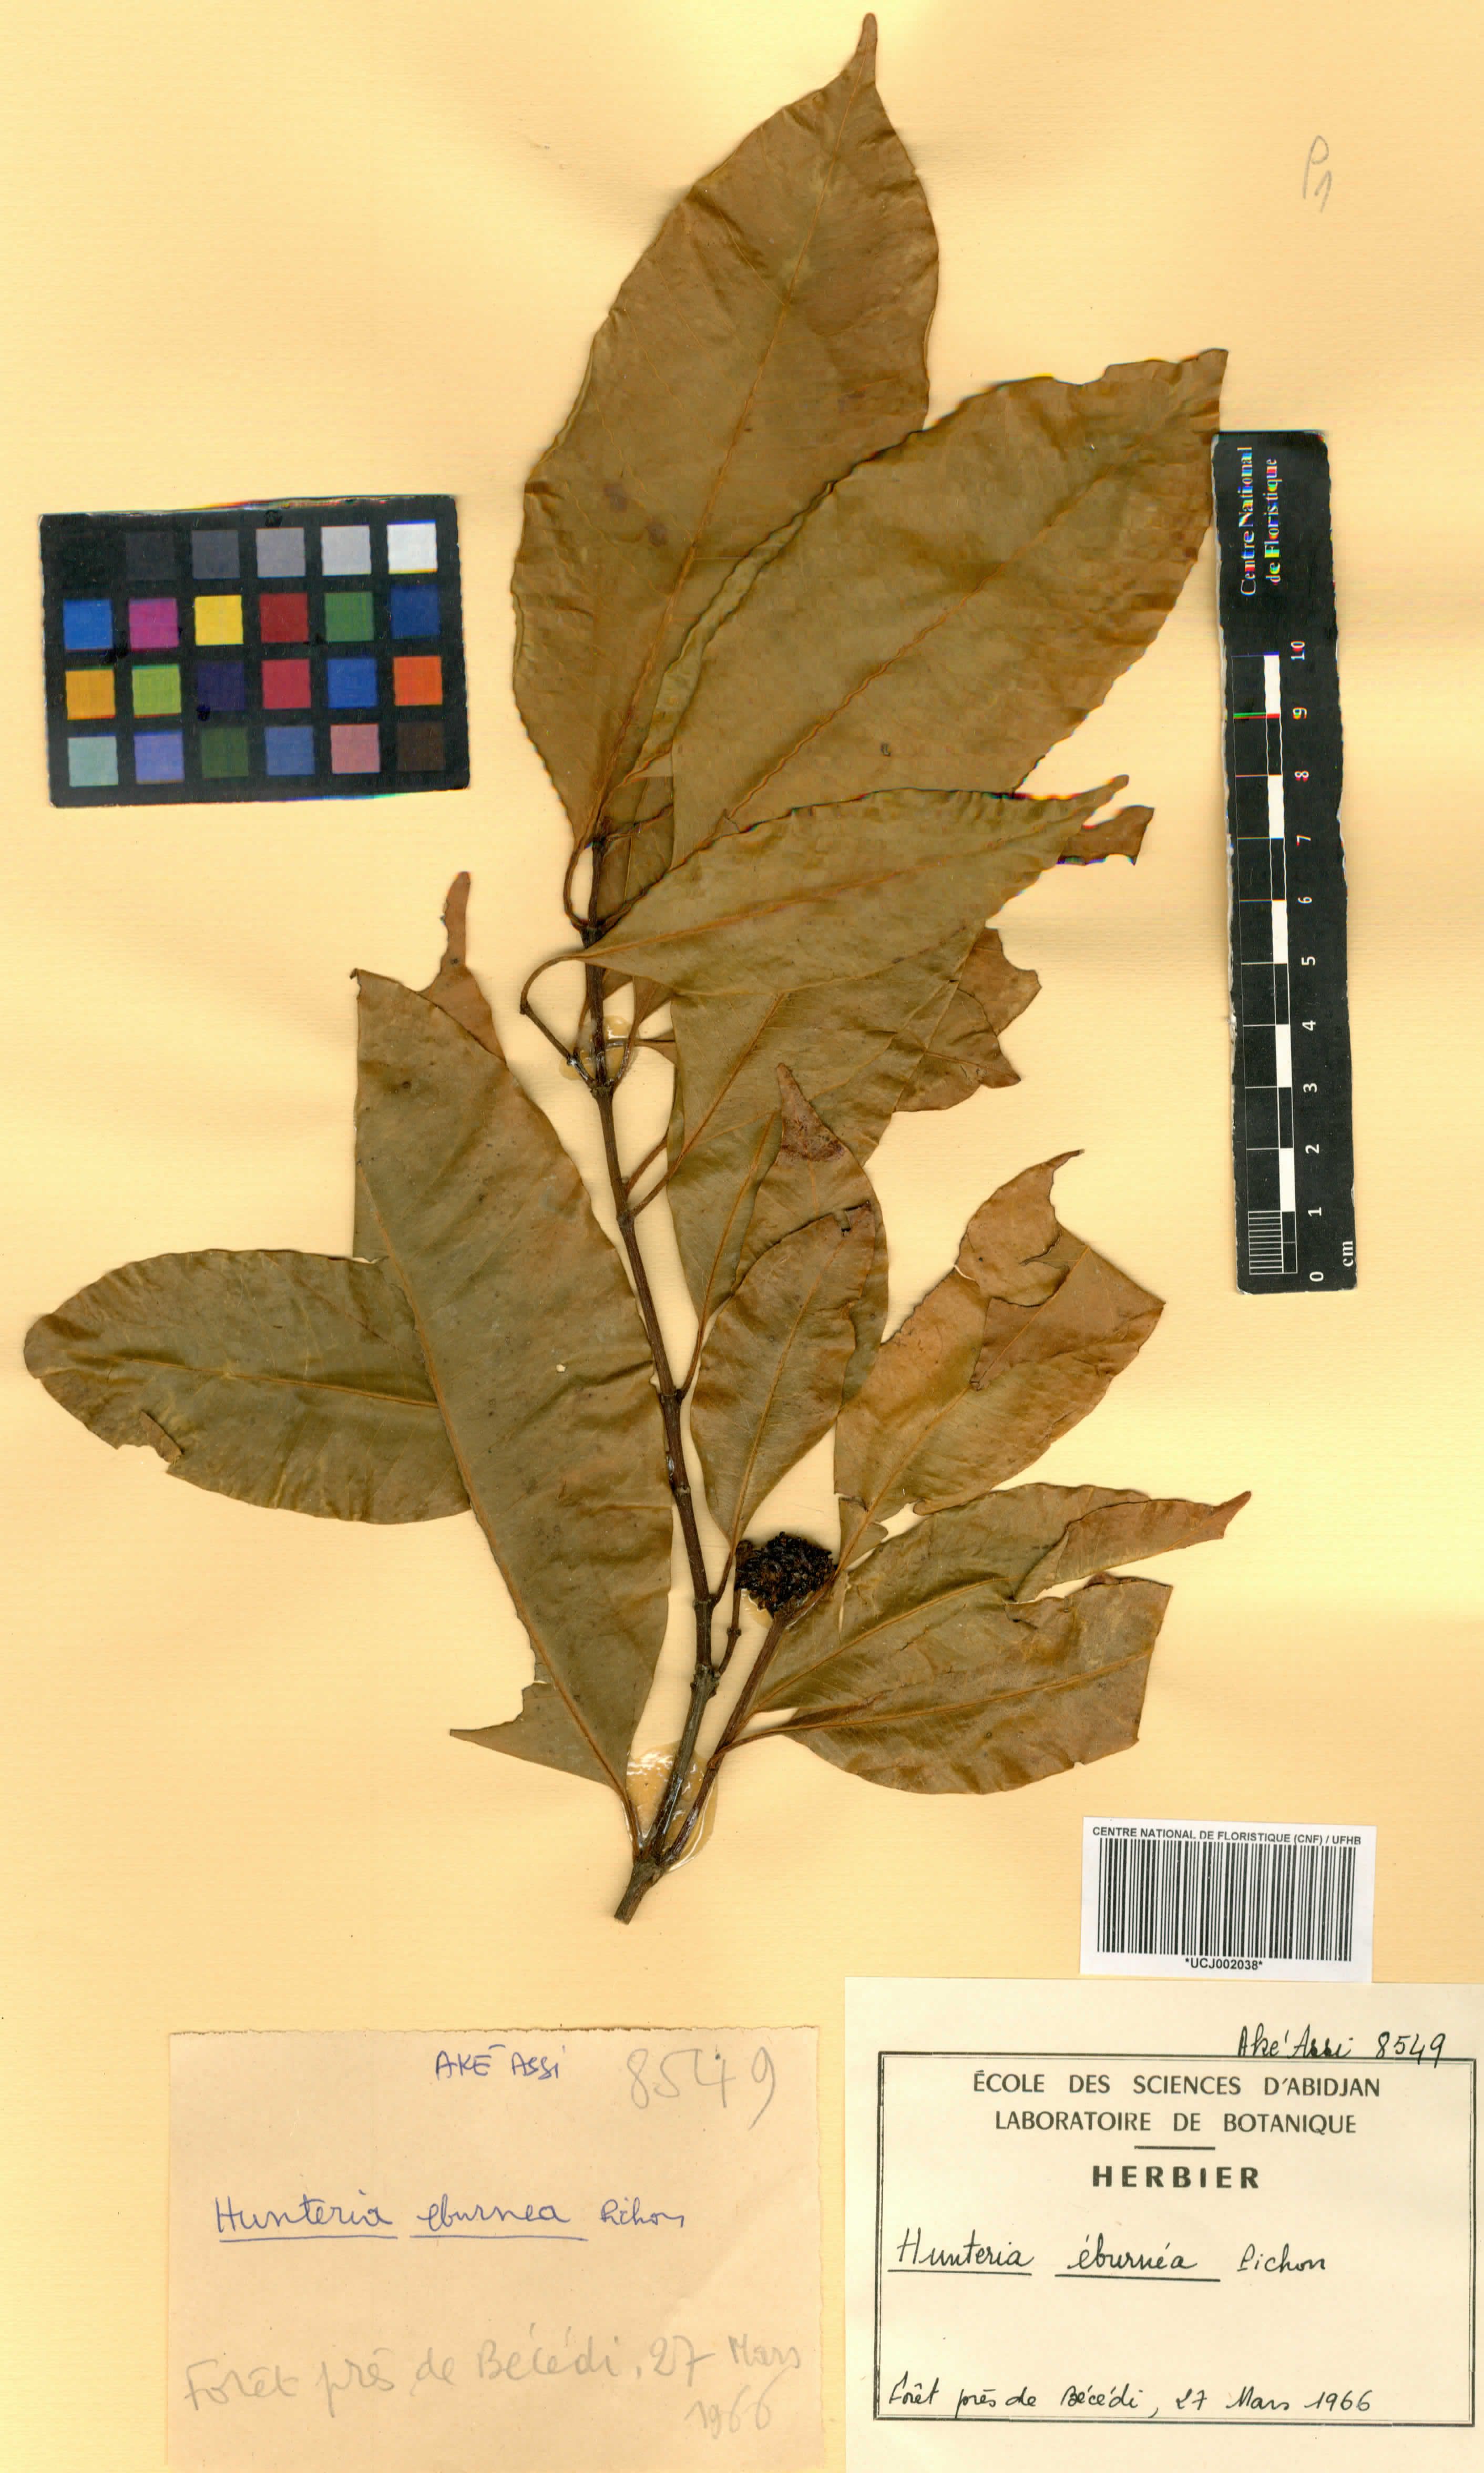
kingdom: Plantae
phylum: Tracheophyta
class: Magnoliopsida
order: Gentianales
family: Apocynaceae
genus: Hunteria
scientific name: Hunteria umbellata
